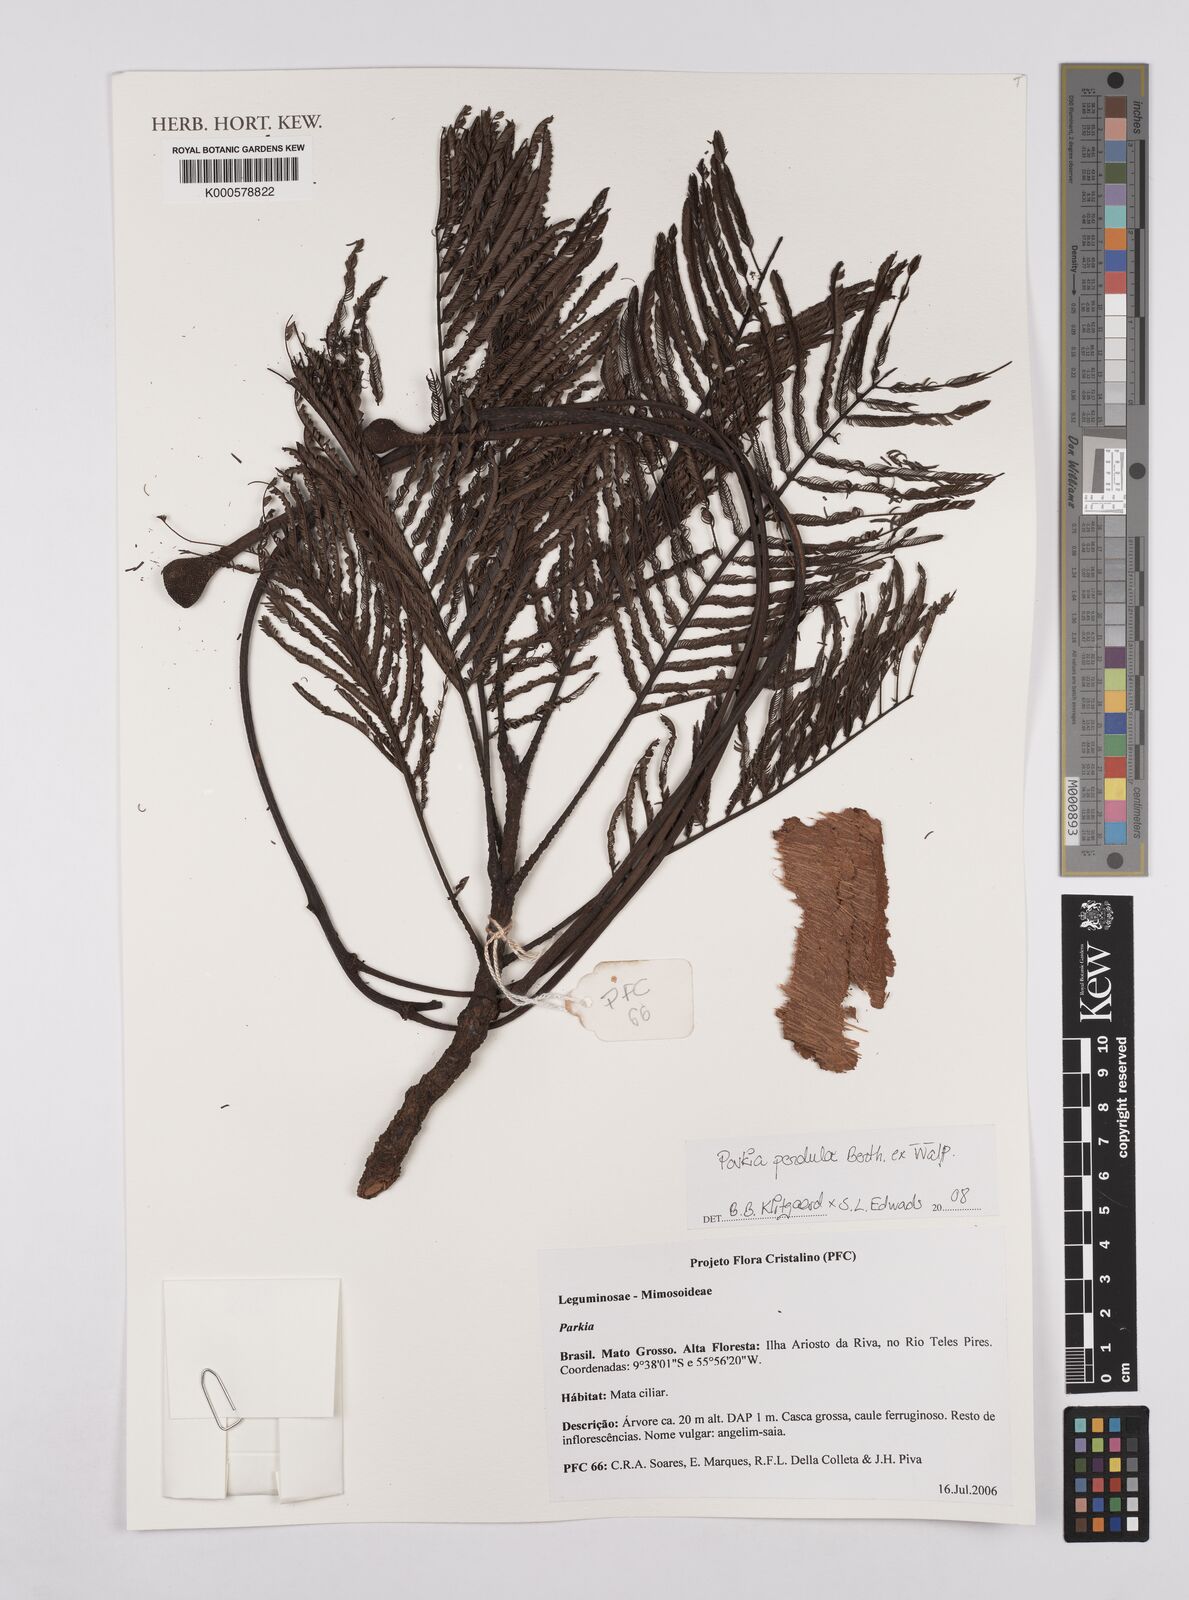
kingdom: Plantae
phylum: Tracheophyta
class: Magnoliopsida
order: Fabales
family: Fabaceae
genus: Parkia
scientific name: Parkia pendula
